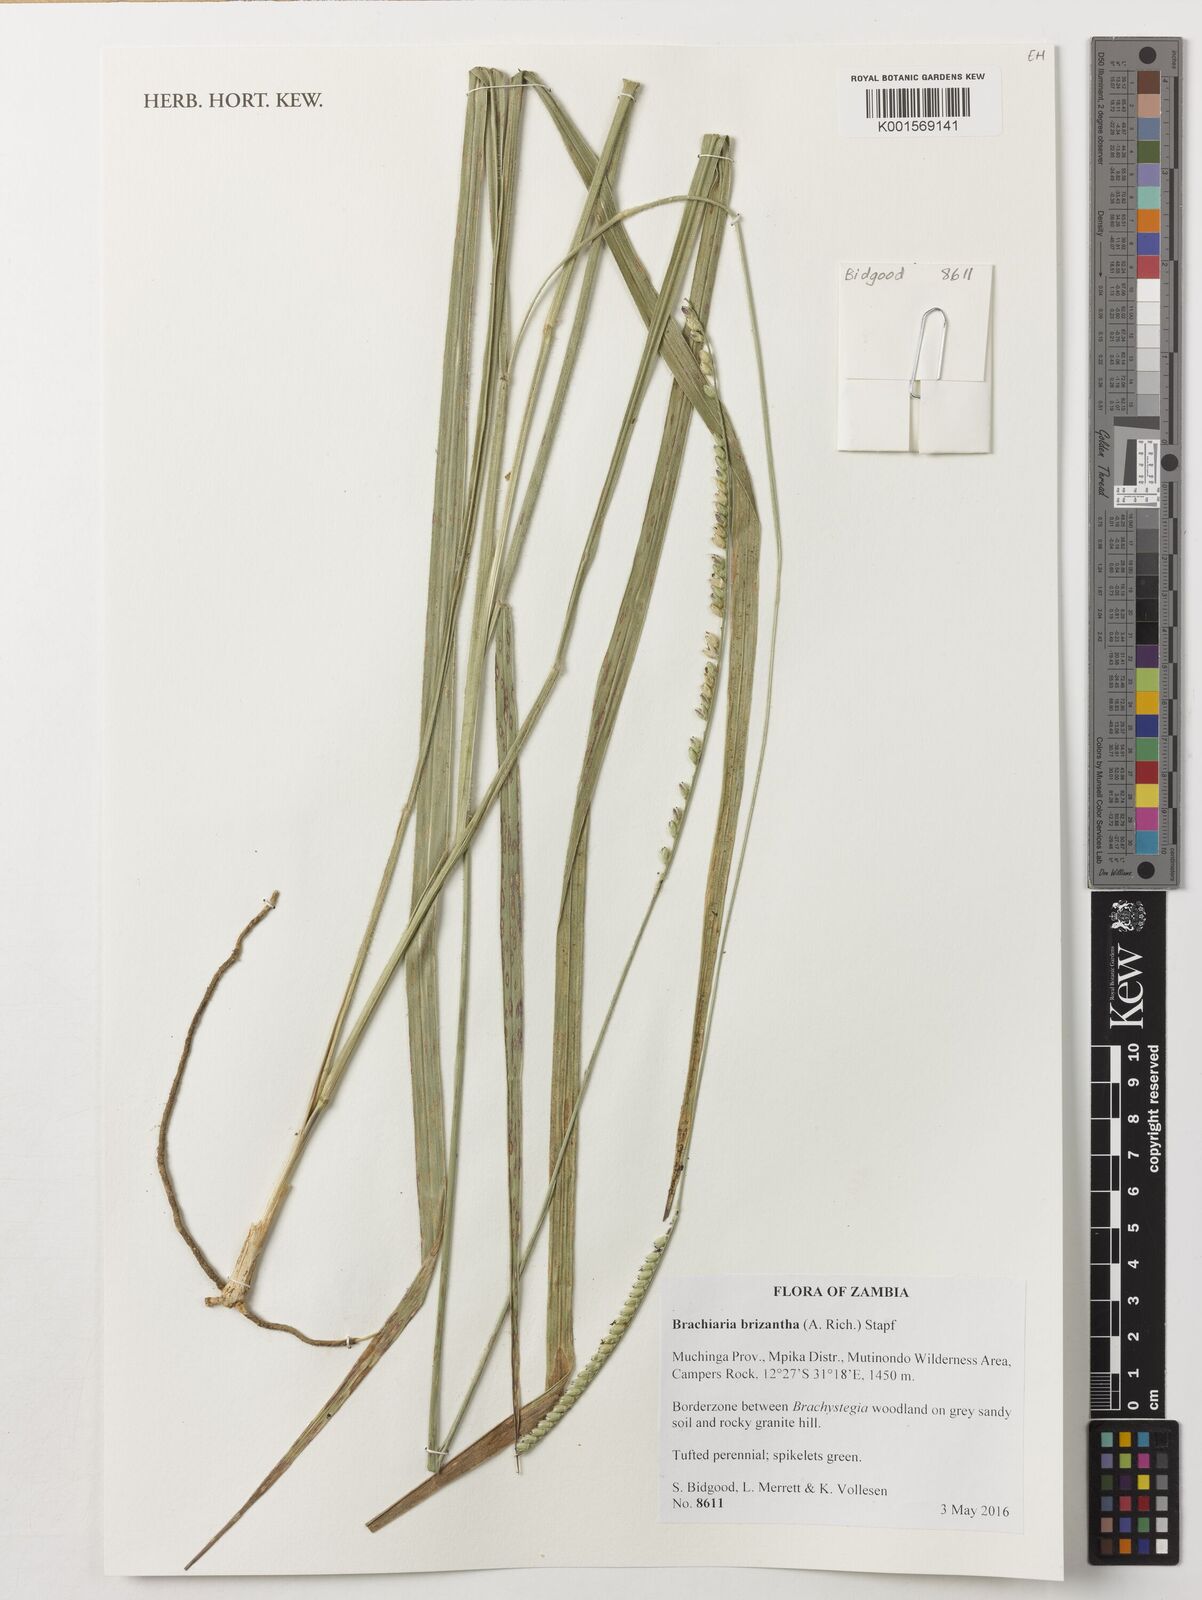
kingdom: Plantae
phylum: Tracheophyta
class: Liliopsida
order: Poales
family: Poaceae
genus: Urochloa
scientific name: Urochloa brizantha
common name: Palisade signalgrass
